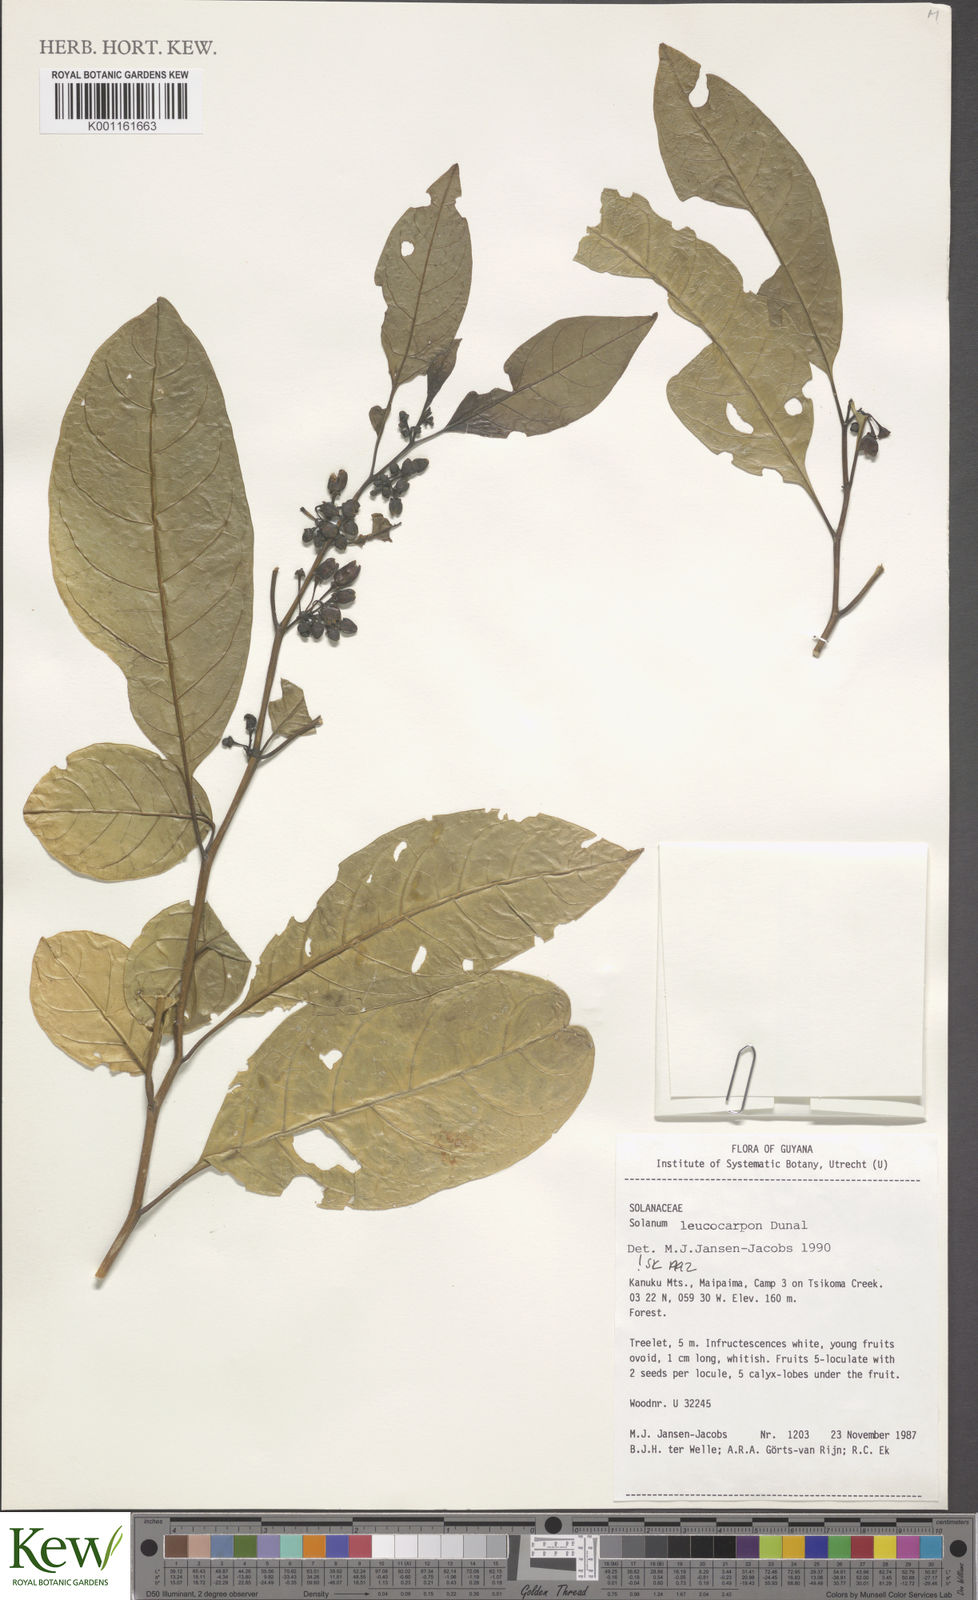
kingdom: Plantae
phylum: Tracheophyta
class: Magnoliopsida
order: Solanales
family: Solanaceae
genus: Solanum
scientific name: Solanum leucocarpon
